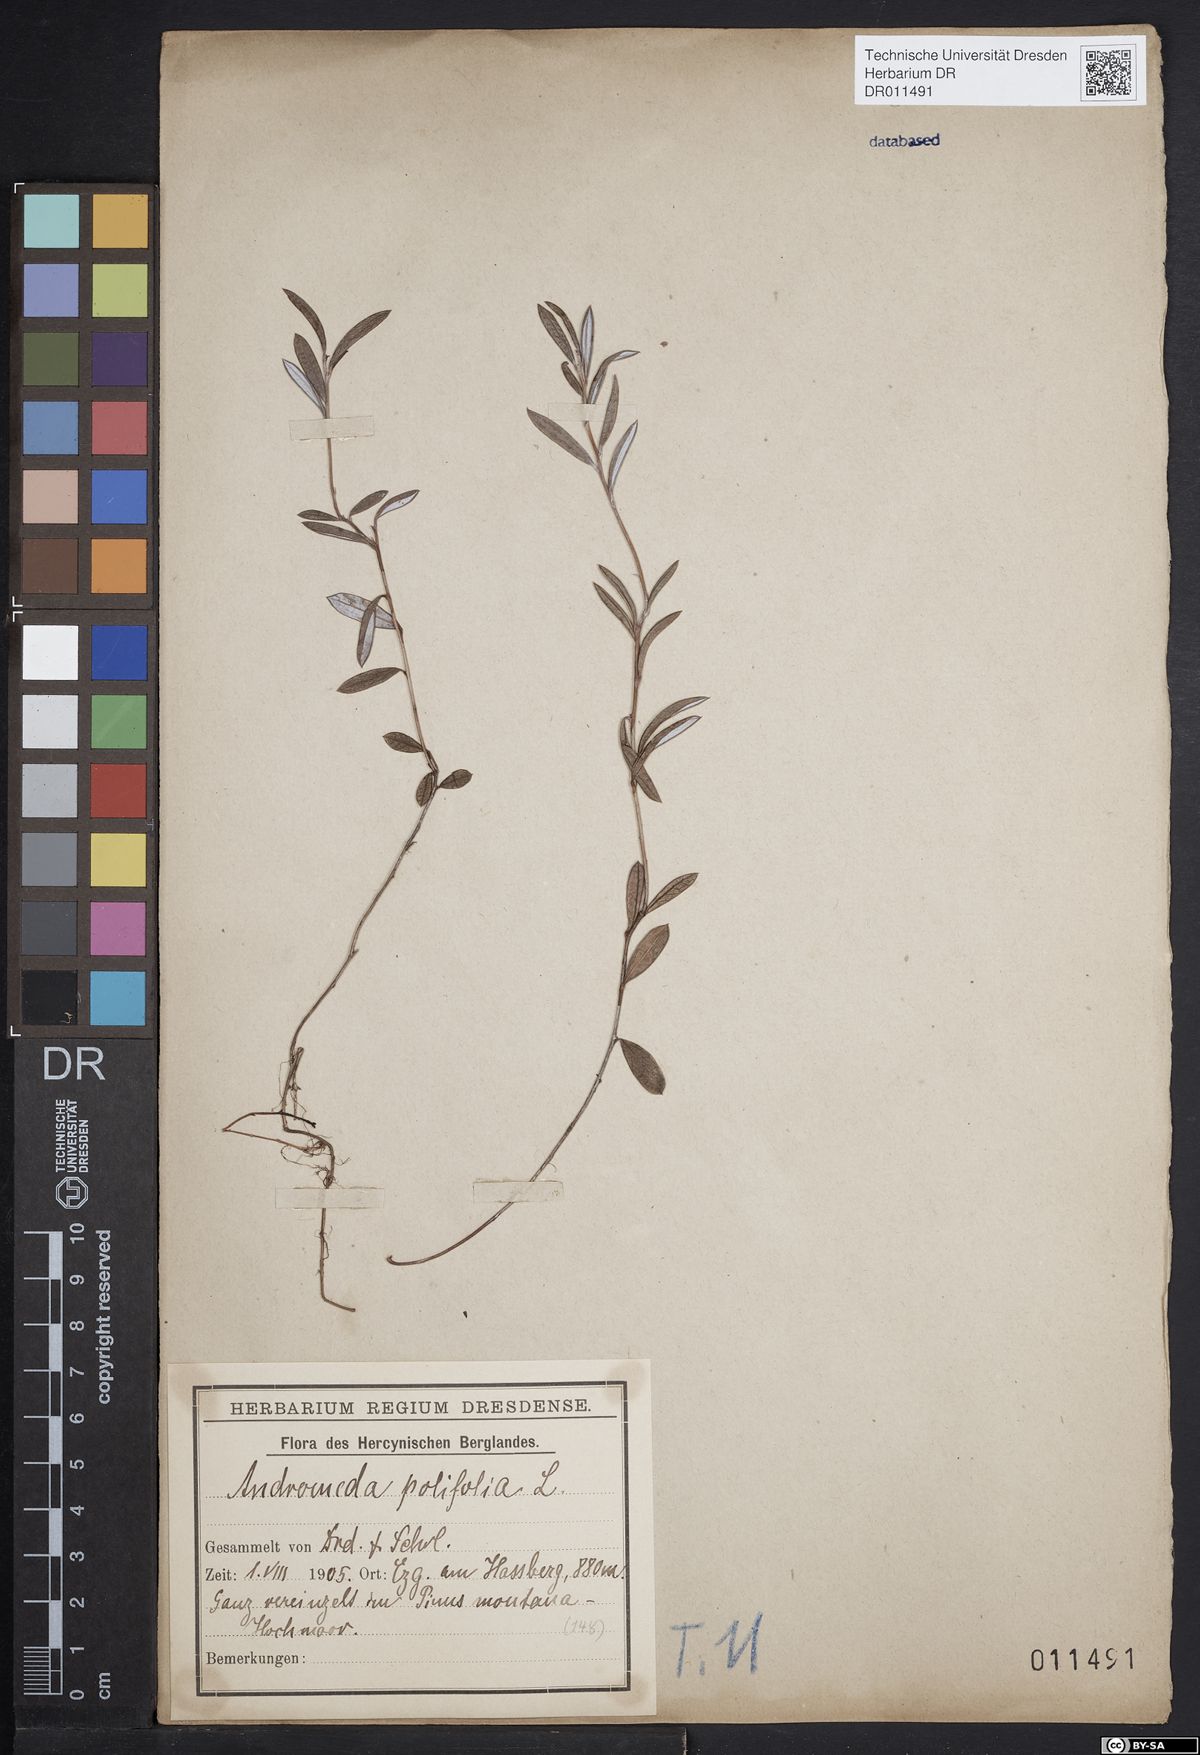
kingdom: Plantae
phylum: Tracheophyta
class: Magnoliopsida
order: Ericales
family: Ericaceae
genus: Andromeda
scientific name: Andromeda polifolia
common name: Bog-rosemary
